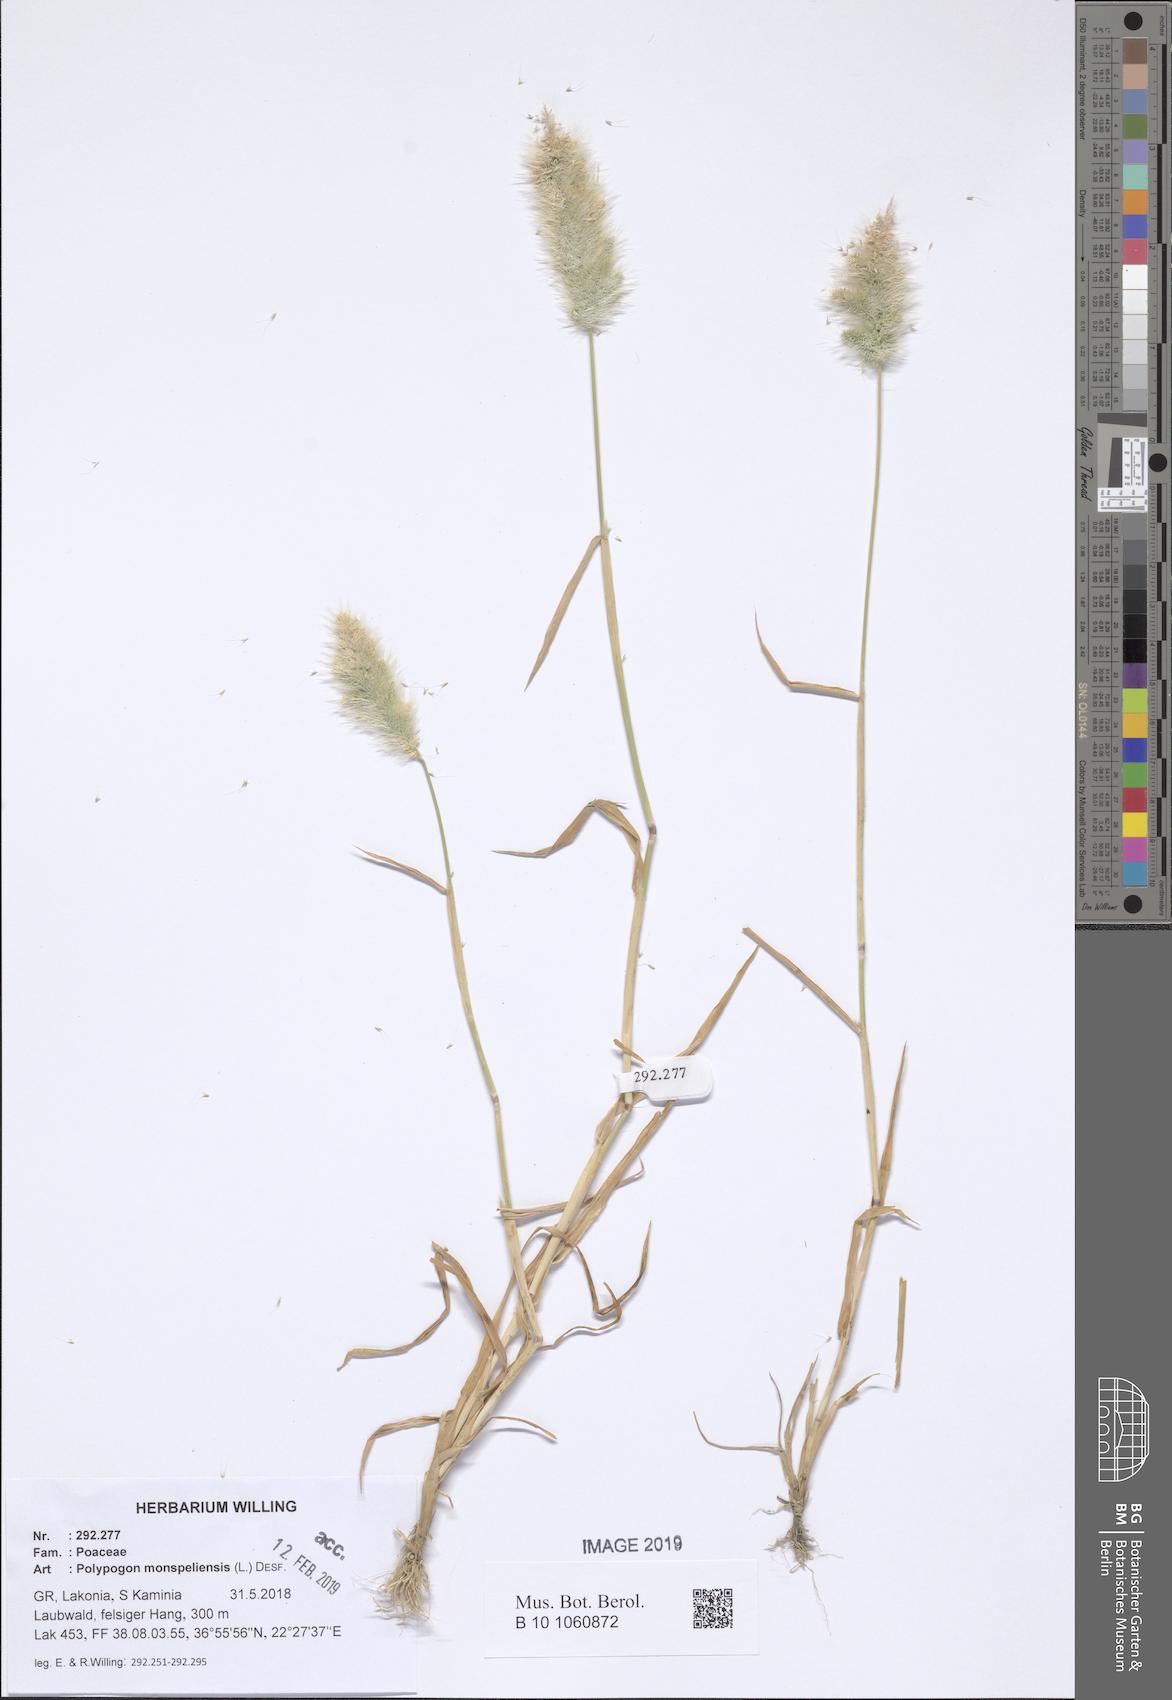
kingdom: Plantae
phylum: Tracheophyta
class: Liliopsida
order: Poales
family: Poaceae
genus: Polypogon
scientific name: Polypogon monspeliensis
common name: Annual rabbitsfoot grass
